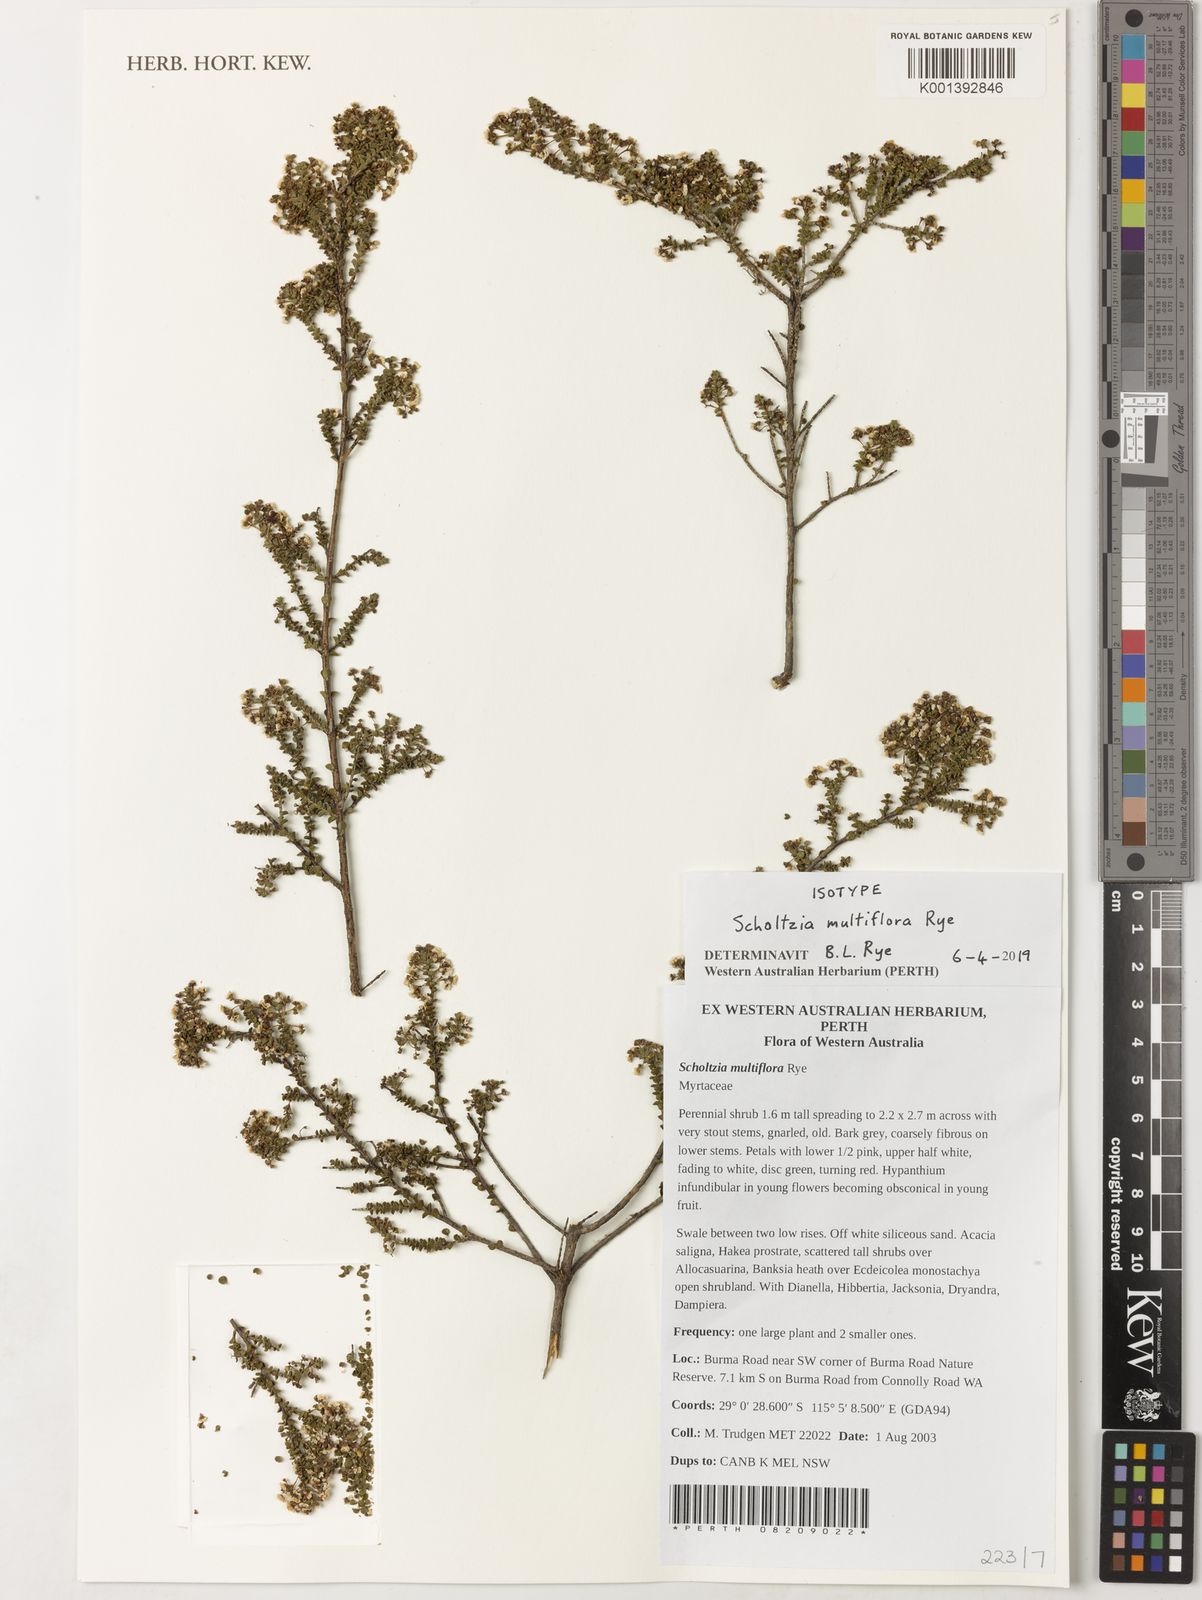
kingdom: Plantae
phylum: Tracheophyta
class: Magnoliopsida
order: Myrtales
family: Myrtaceae
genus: Scholtzia
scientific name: Scholtzia
